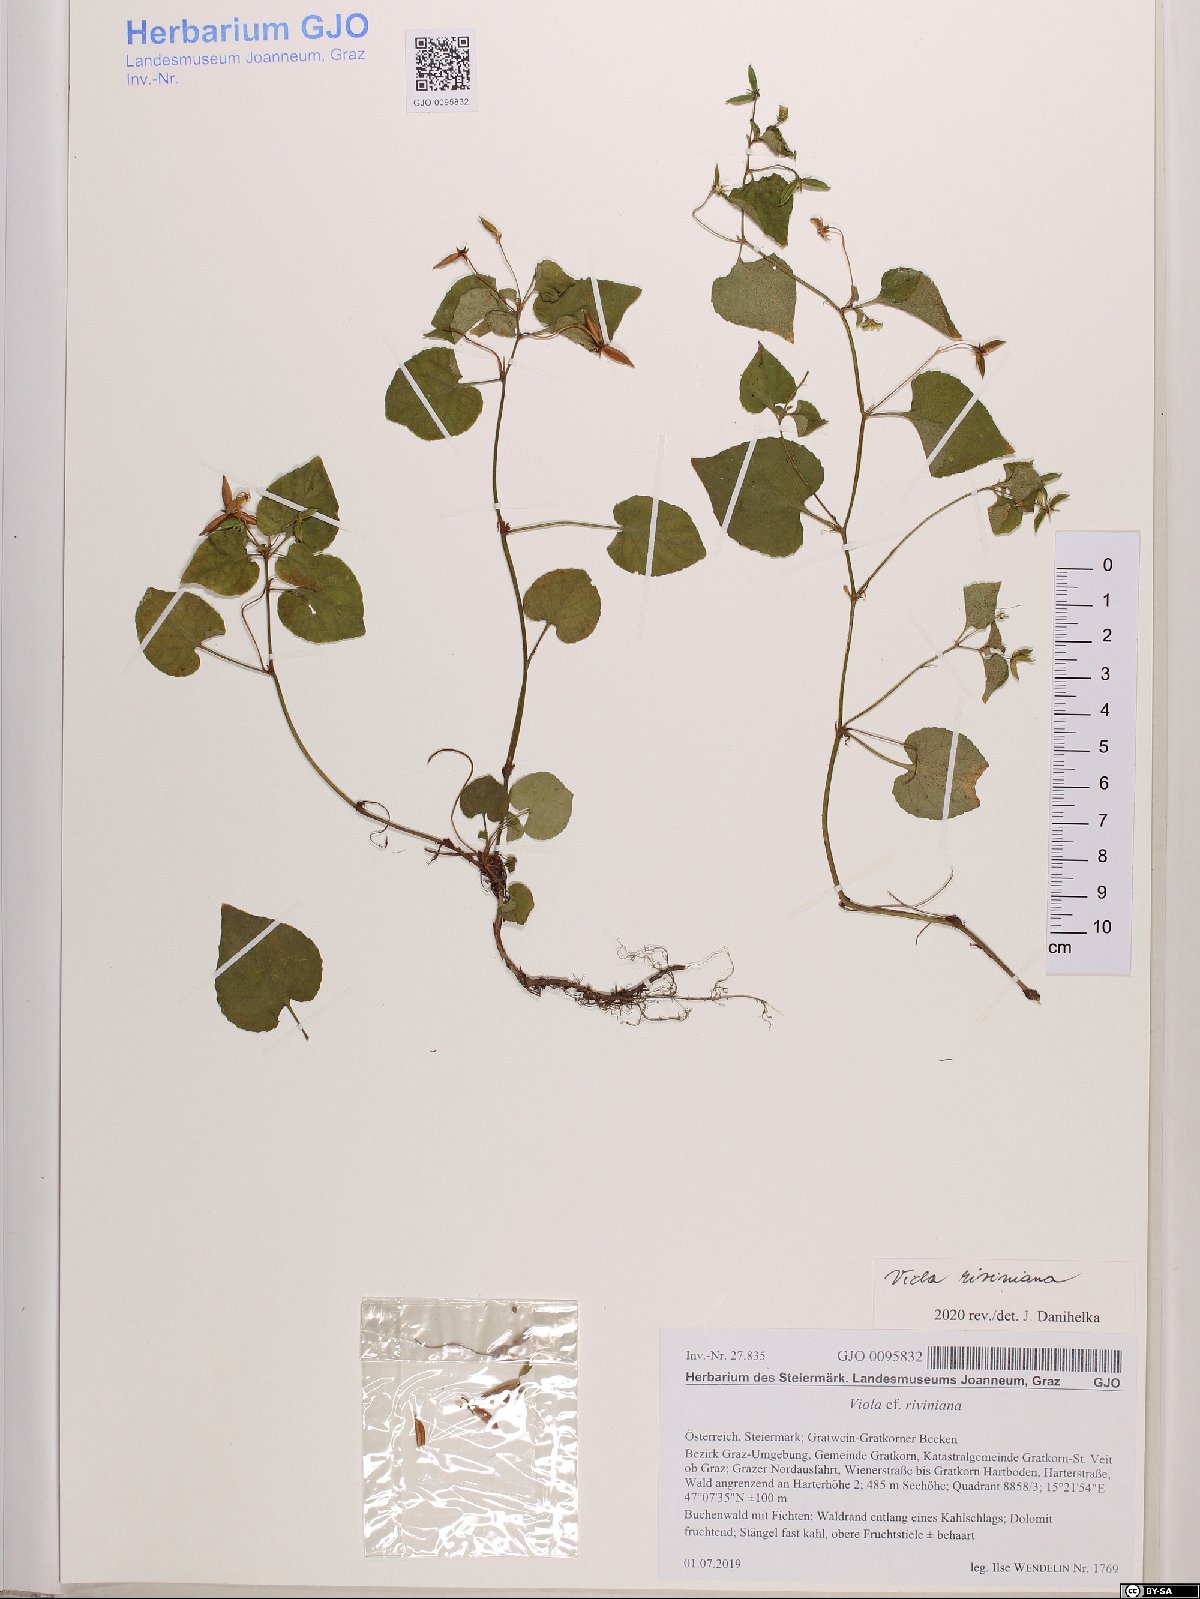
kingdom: Plantae
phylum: Tracheophyta
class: Magnoliopsida
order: Malpighiales
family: Violaceae
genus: Viola
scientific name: Viola riviniana
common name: Common dog-violet
